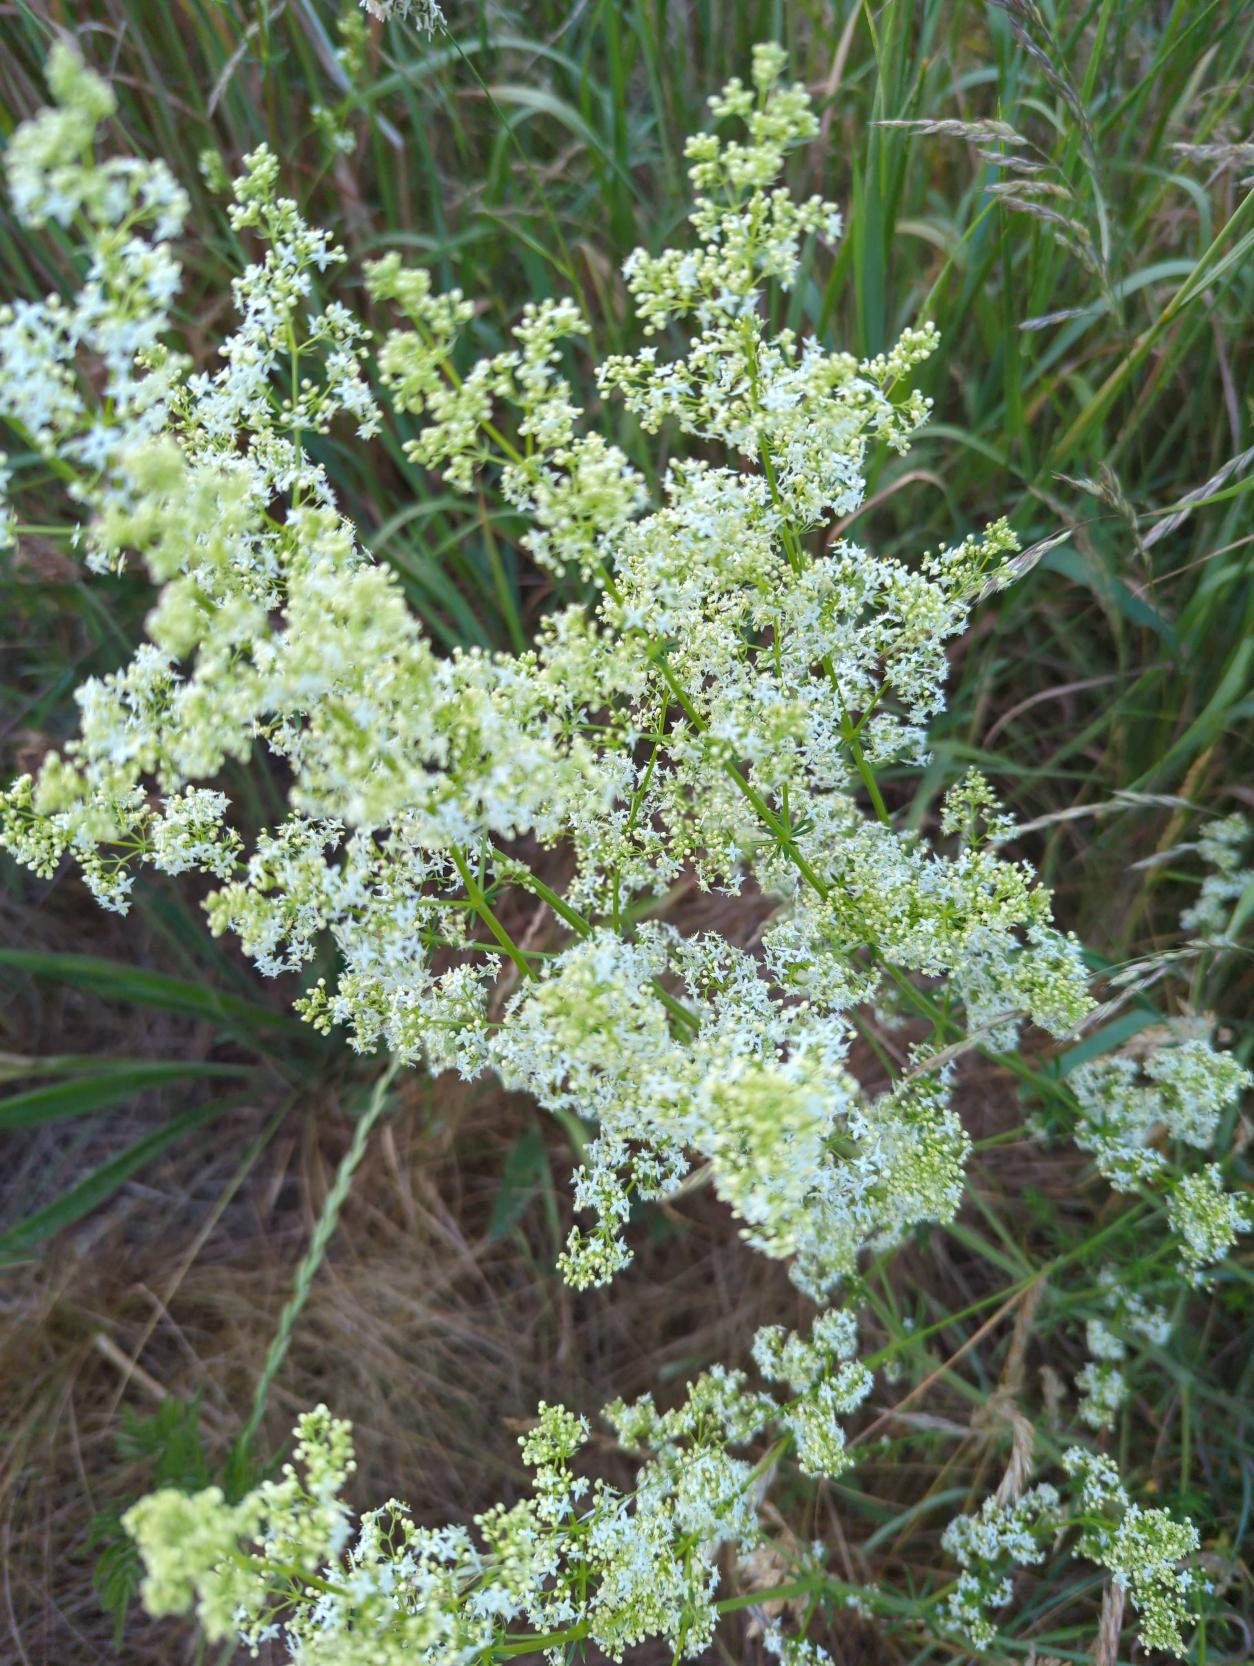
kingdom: Plantae
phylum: Tracheophyta
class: Magnoliopsida
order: Gentianales
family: Rubiaceae
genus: Galium
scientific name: Galium mollugo
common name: Hvid snerre
